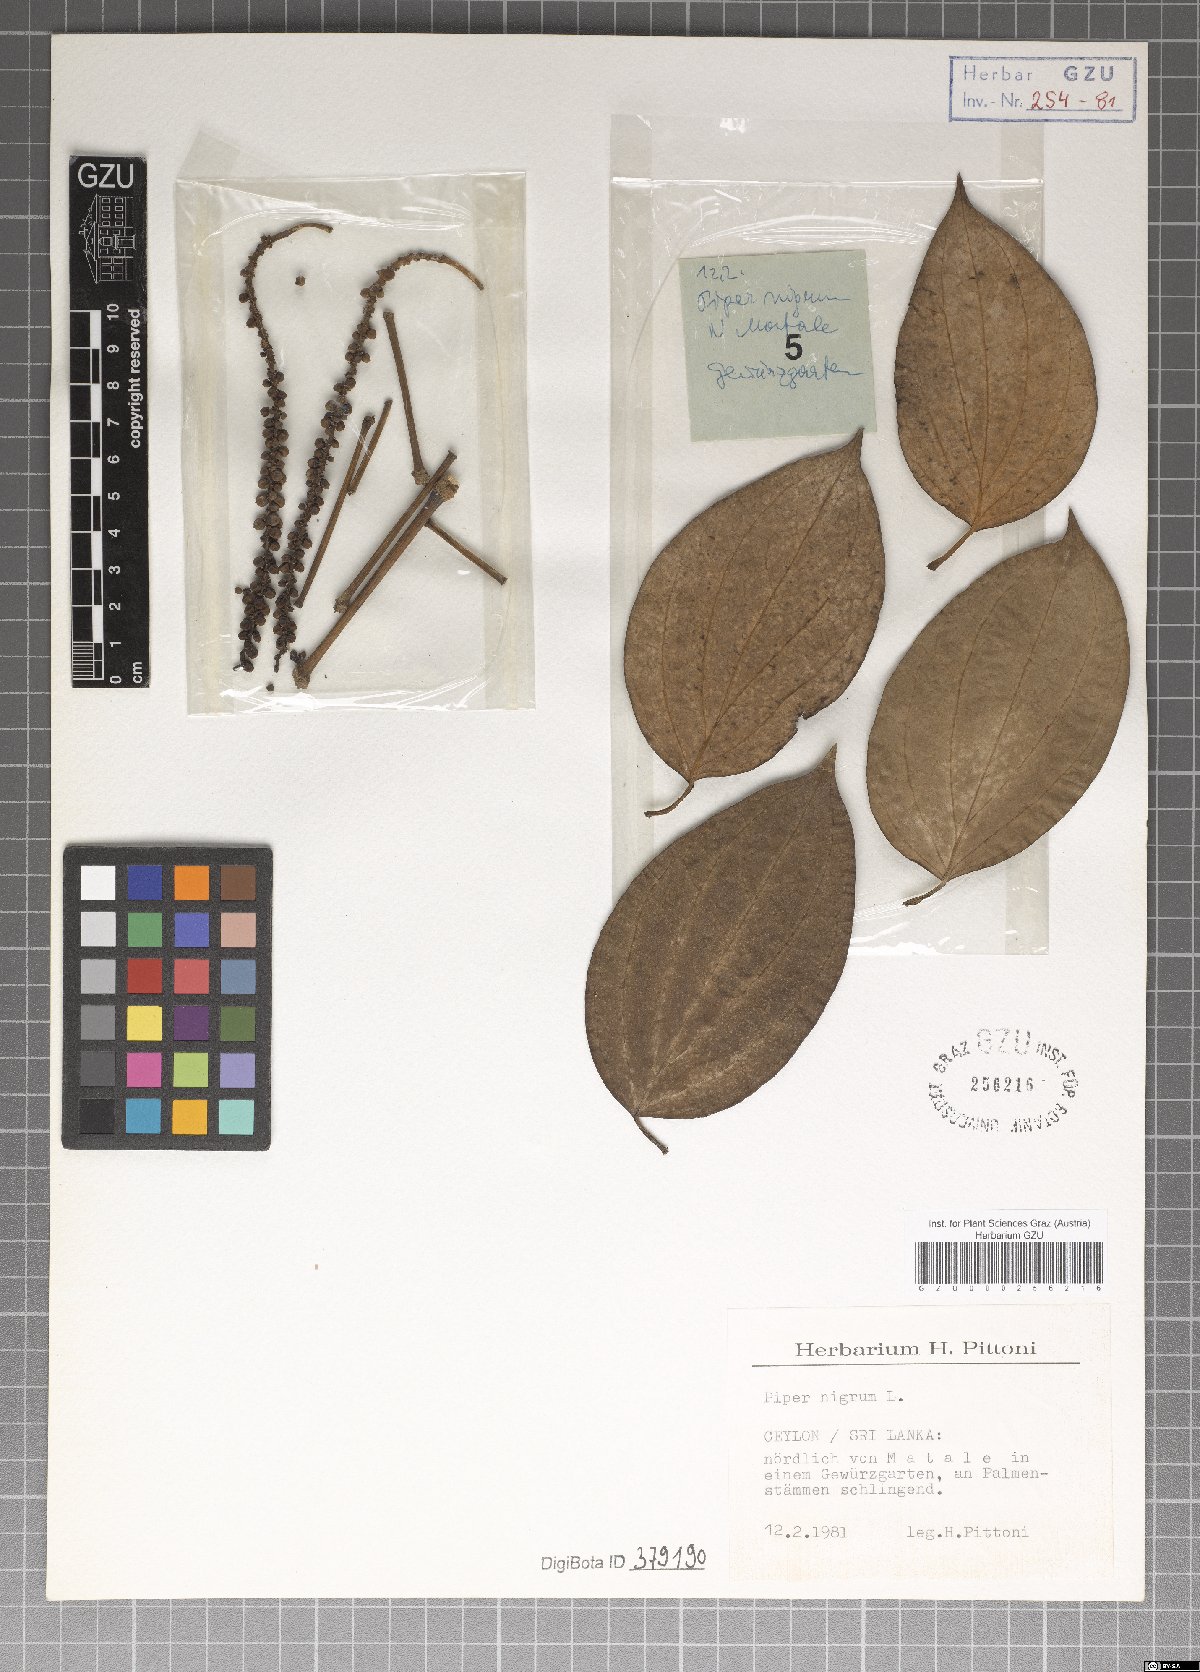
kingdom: Plantae
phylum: Tracheophyta
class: Magnoliopsida
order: Piperales
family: Piperaceae
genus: Piper
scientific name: Piper nigrum
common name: Black pepper
